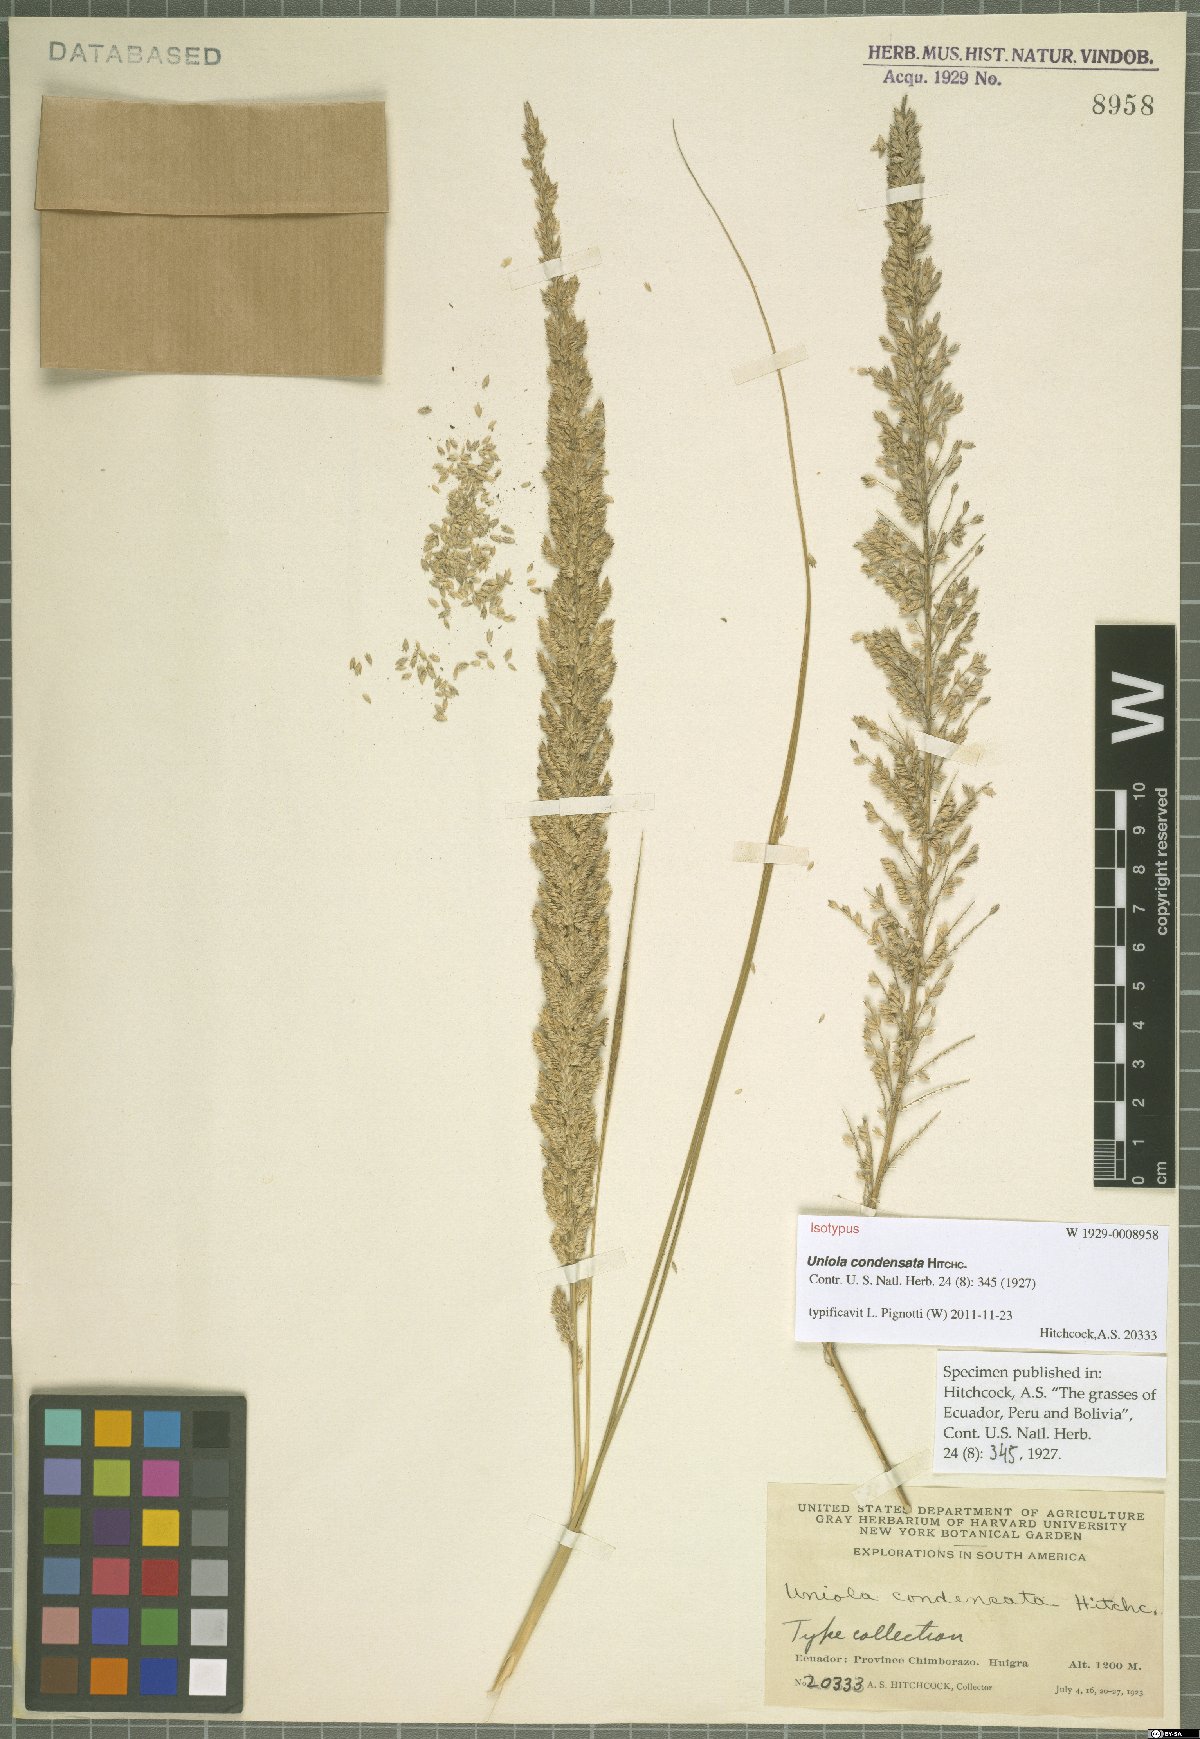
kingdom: Plantae
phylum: Tracheophyta
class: Liliopsida
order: Poales
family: Poaceae
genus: Uniola
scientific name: Uniola condensata
